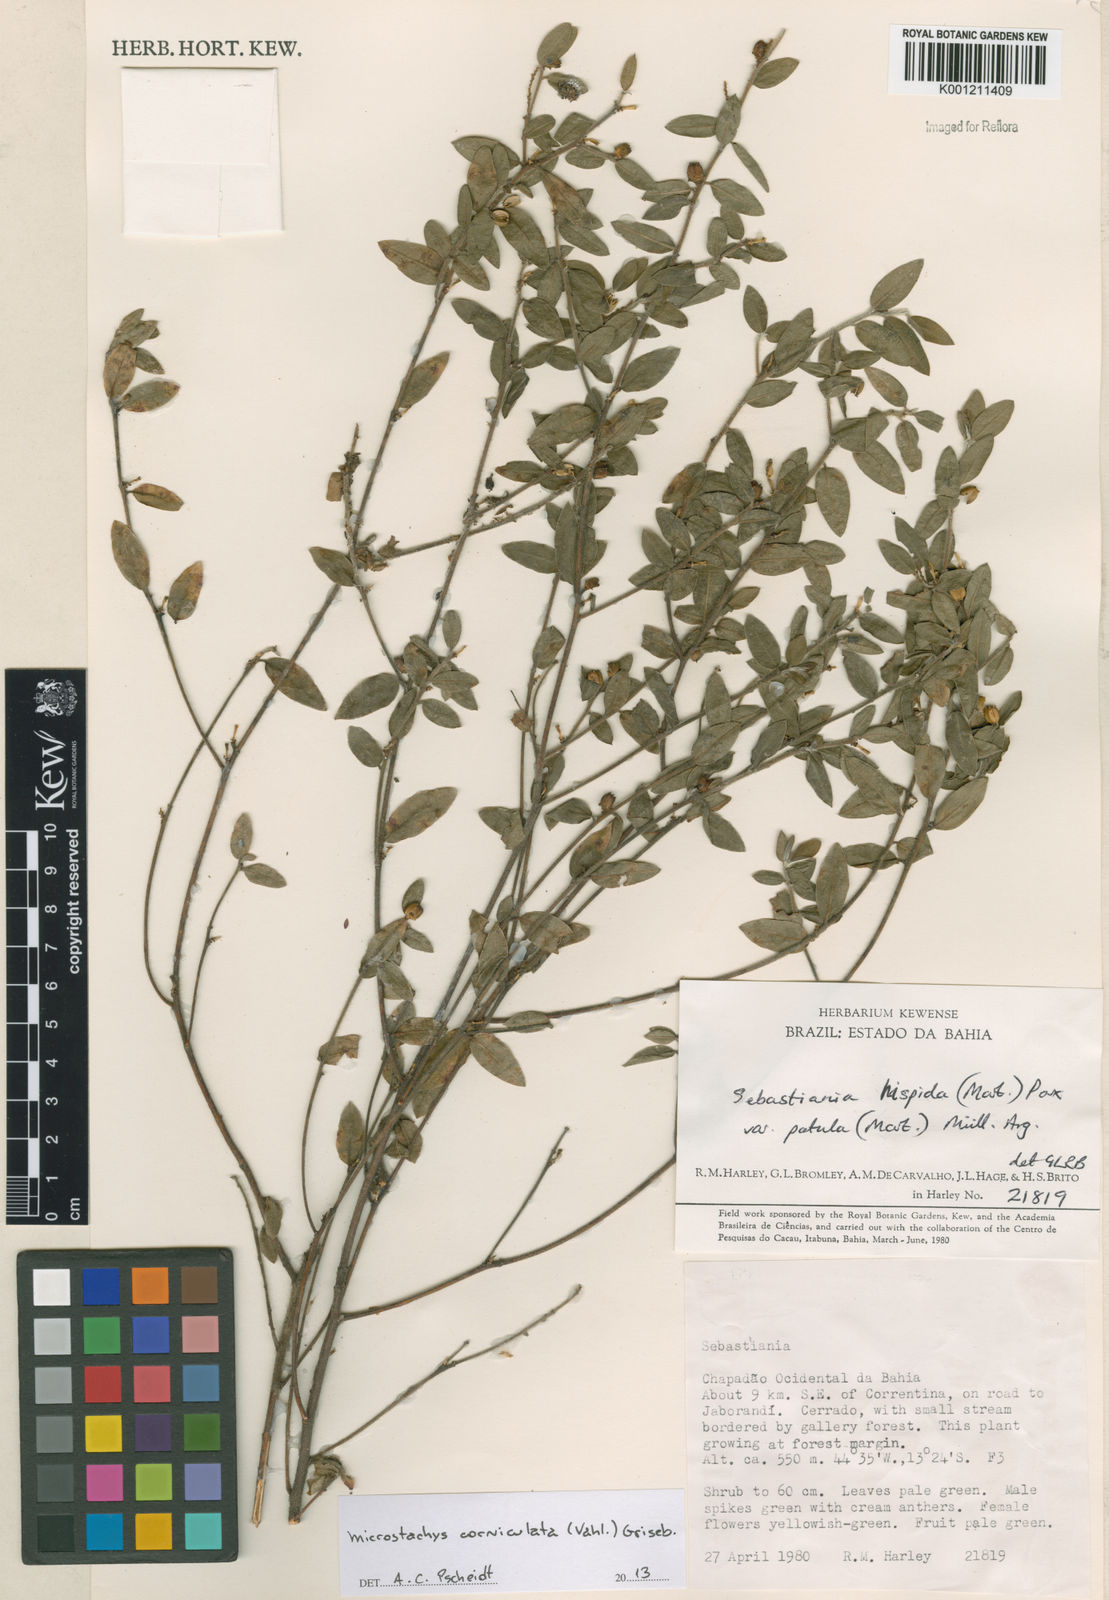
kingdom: Plantae
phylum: Tracheophyta
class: Magnoliopsida
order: Malpighiales
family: Euphorbiaceae
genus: Microstachys
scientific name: Microstachys corniculata
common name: Hato tejas
